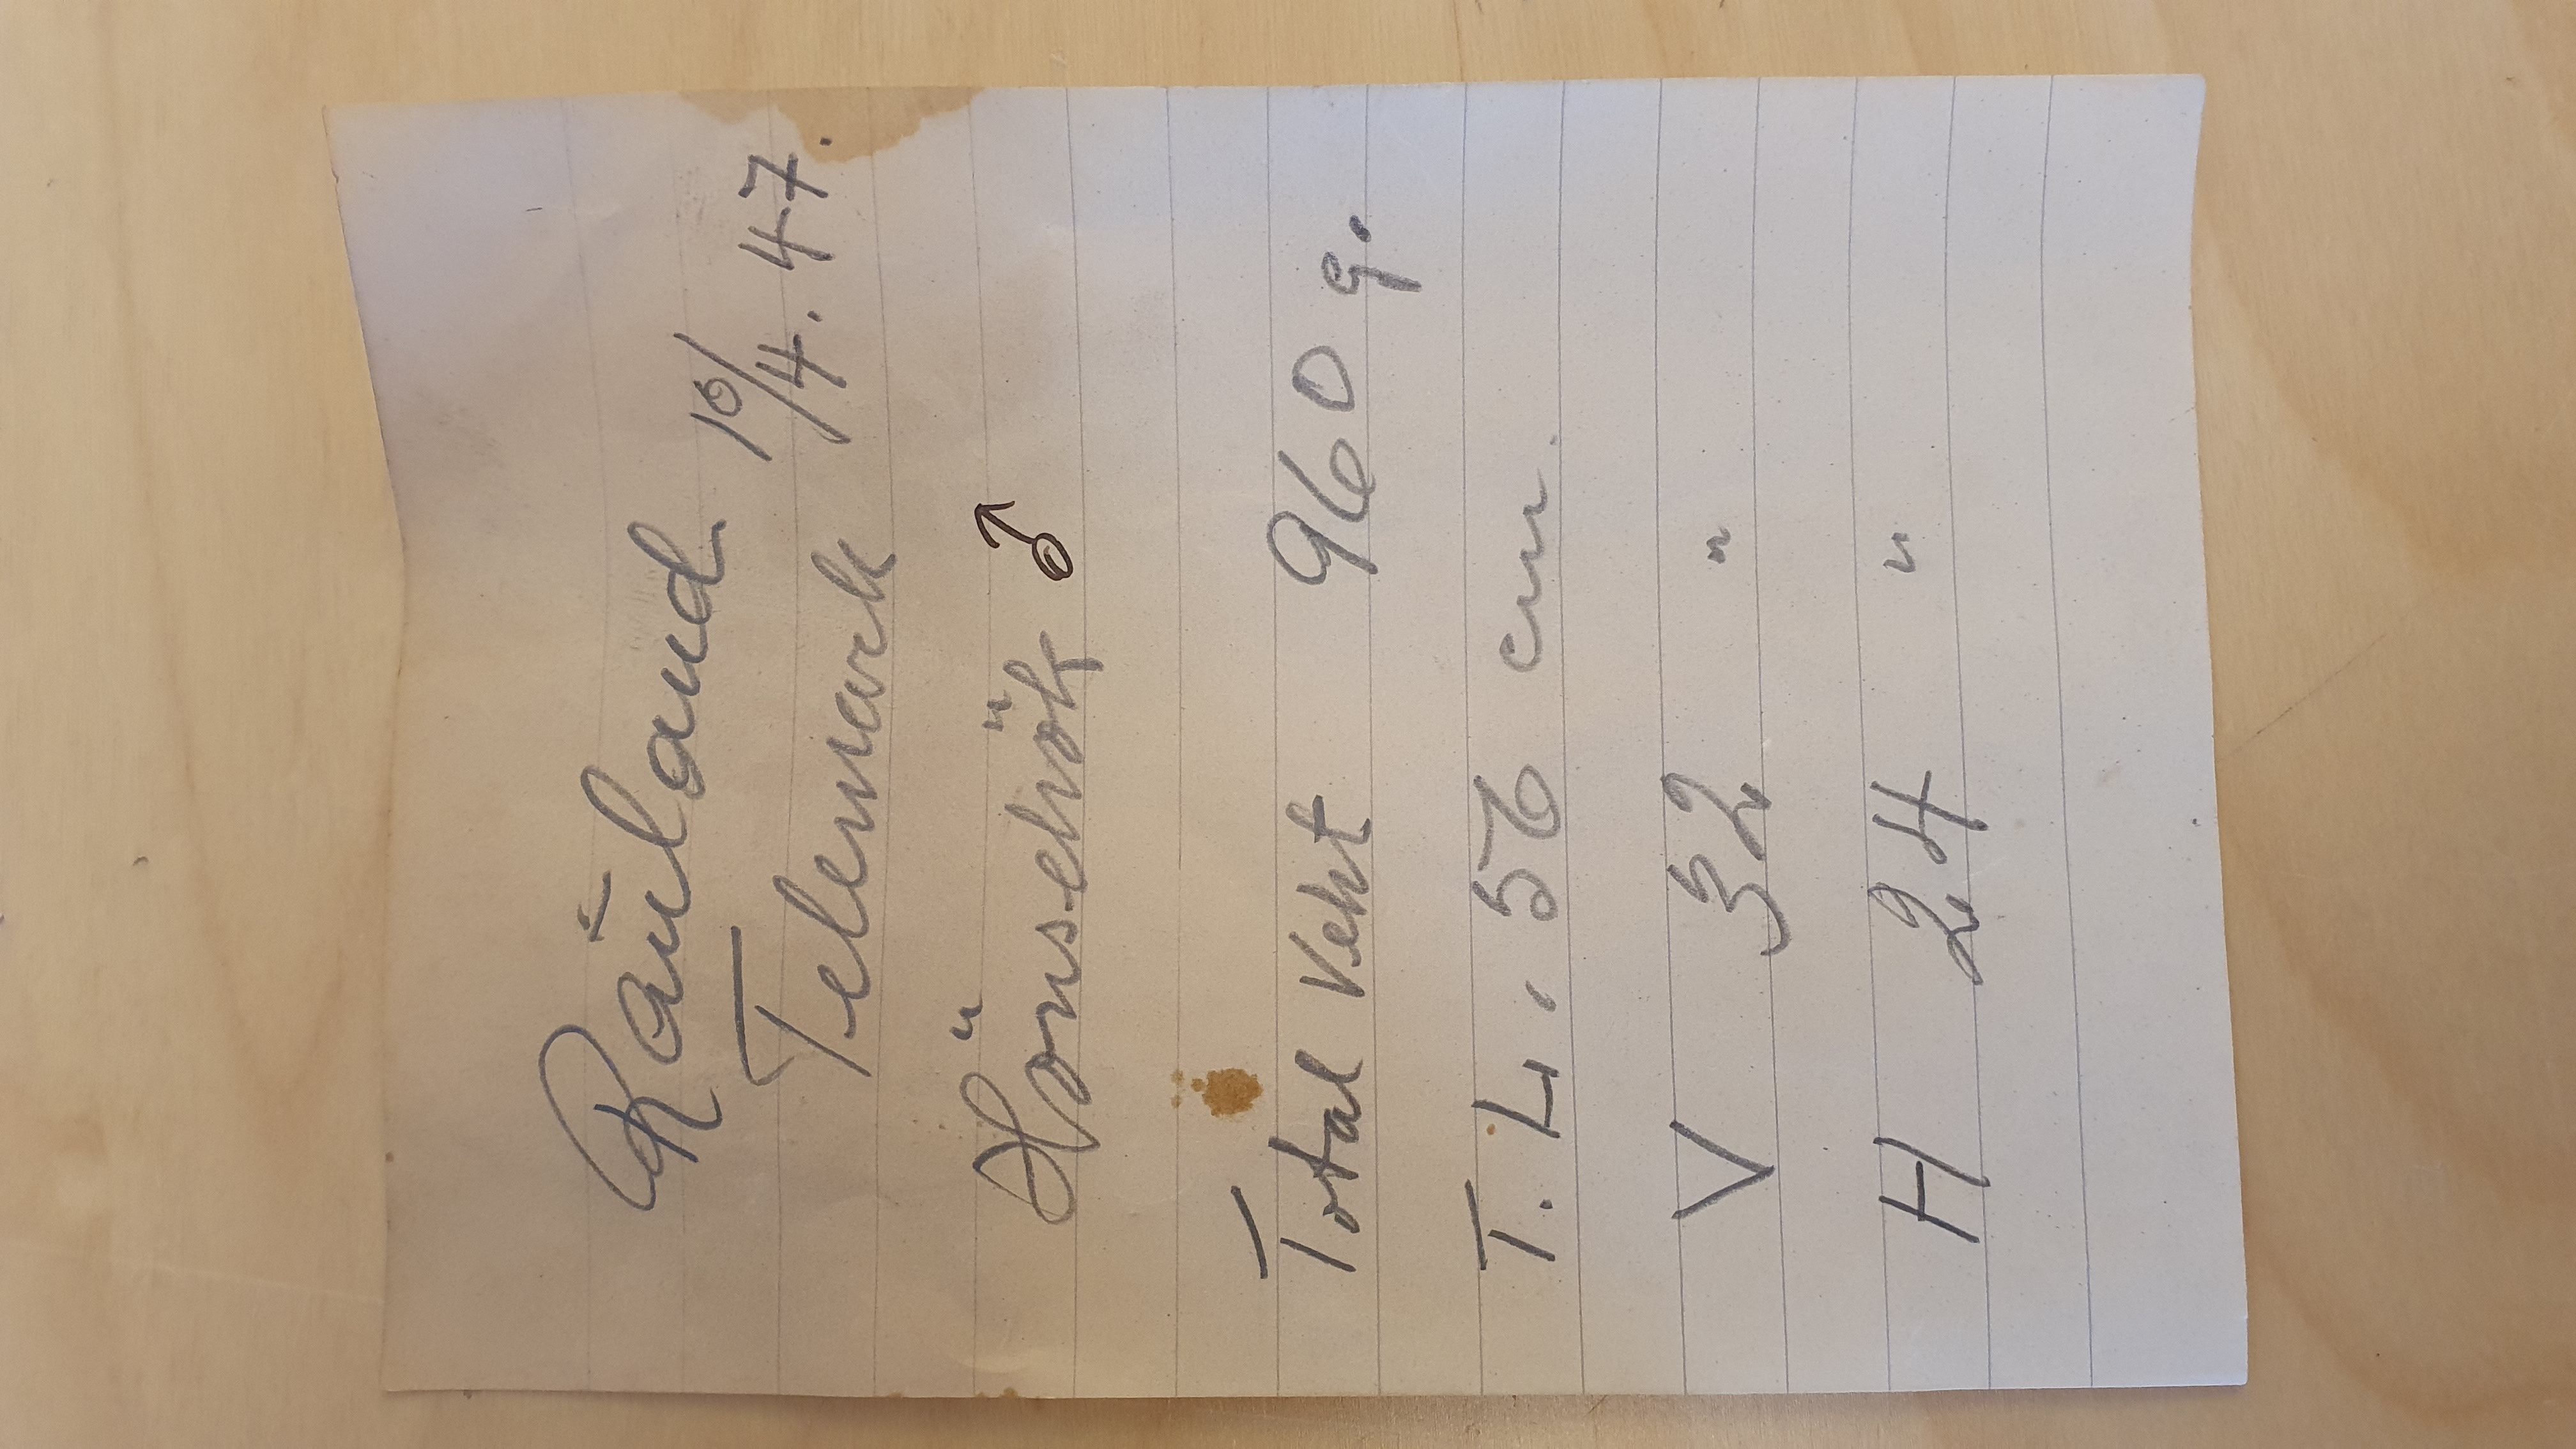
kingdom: Animalia
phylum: Chordata
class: Aves
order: Accipitriformes
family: Accipitridae
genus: Accipiter
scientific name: Accipiter gentilis
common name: Northern goshawk
